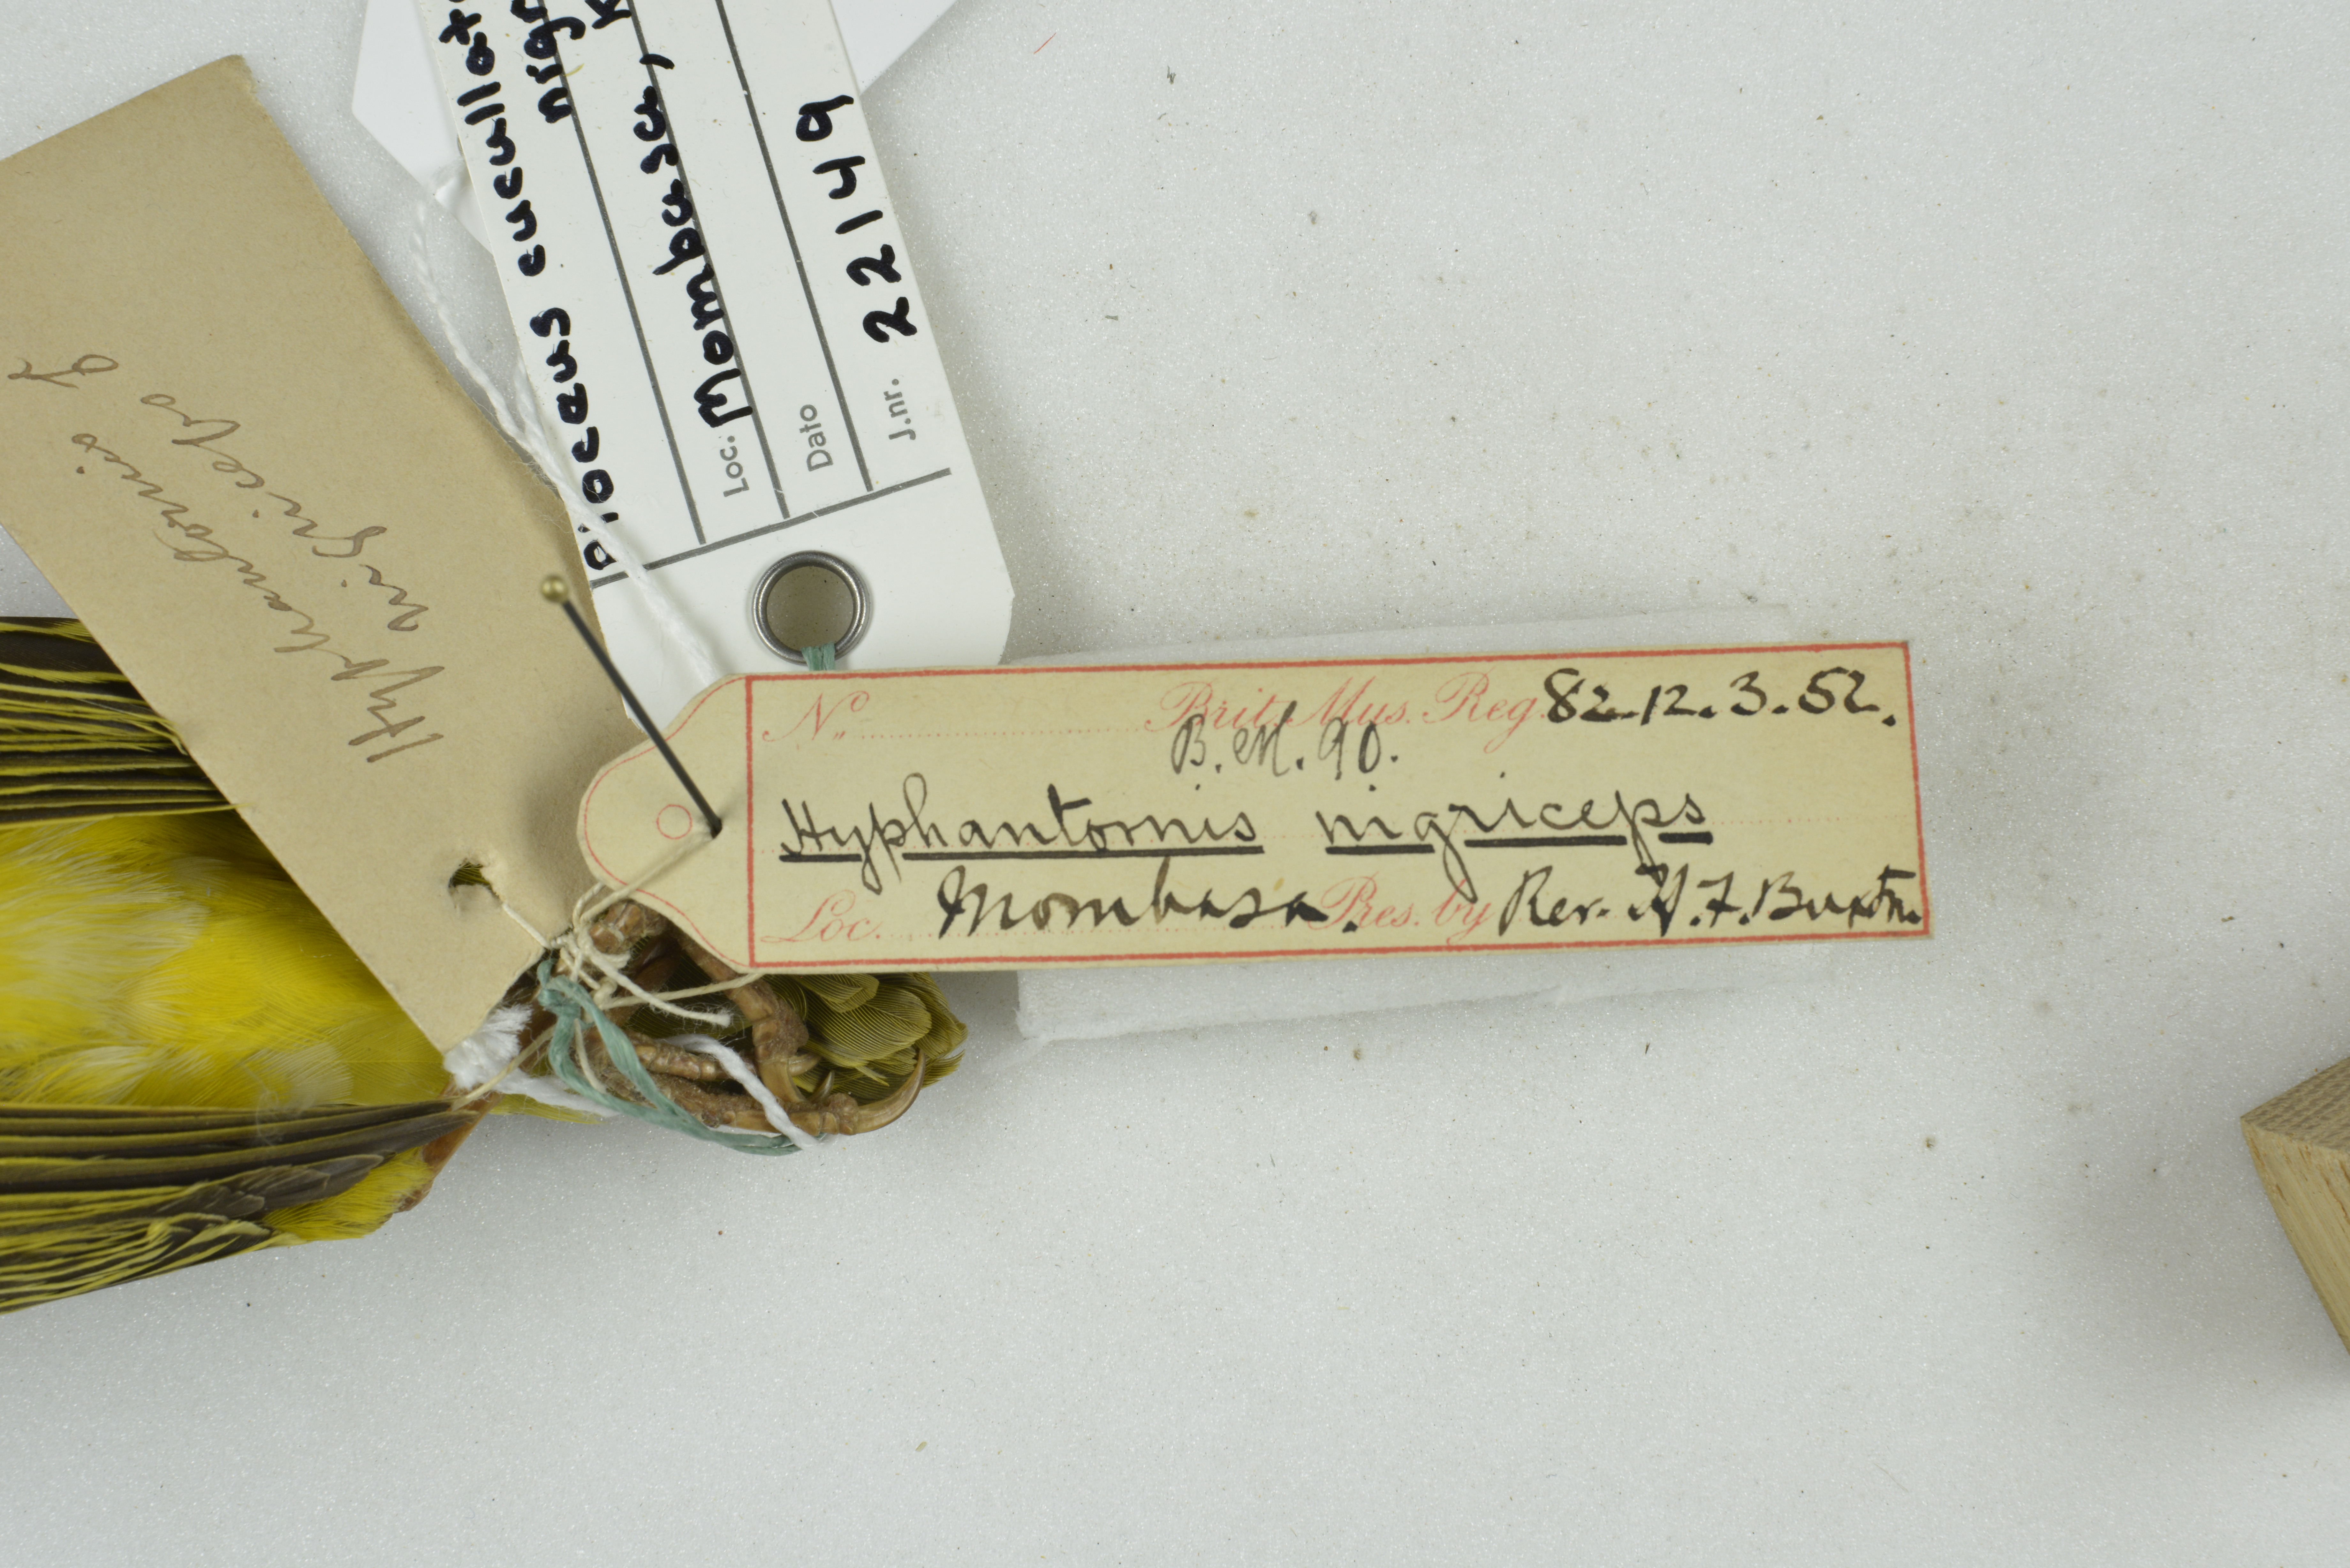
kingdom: Animalia
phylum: Chordata
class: Aves
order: Passeriformes
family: Ploceidae
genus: Ploceus
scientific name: Ploceus cucullatus
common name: Village weaver
